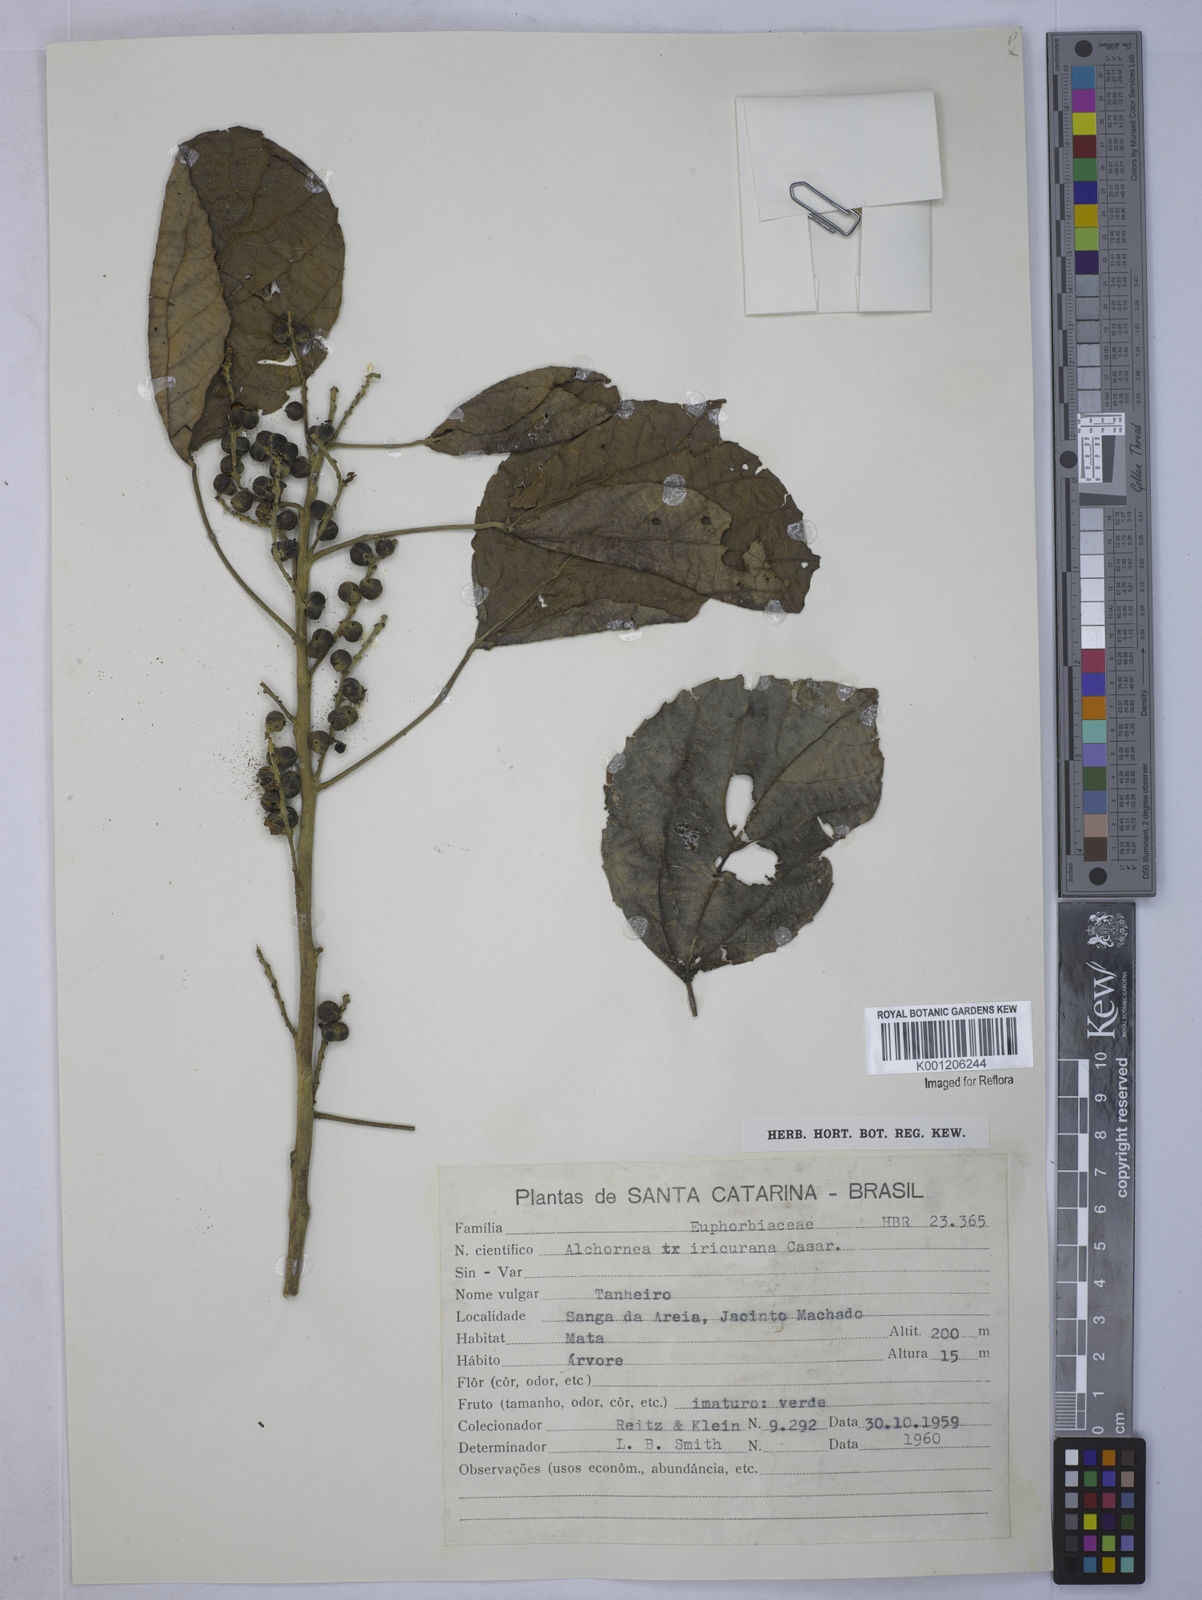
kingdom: Plantae
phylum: Tracheophyta
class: Magnoliopsida
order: Malpighiales
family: Euphorbiaceae
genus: Alchornea
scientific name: Alchornea glandulosa
